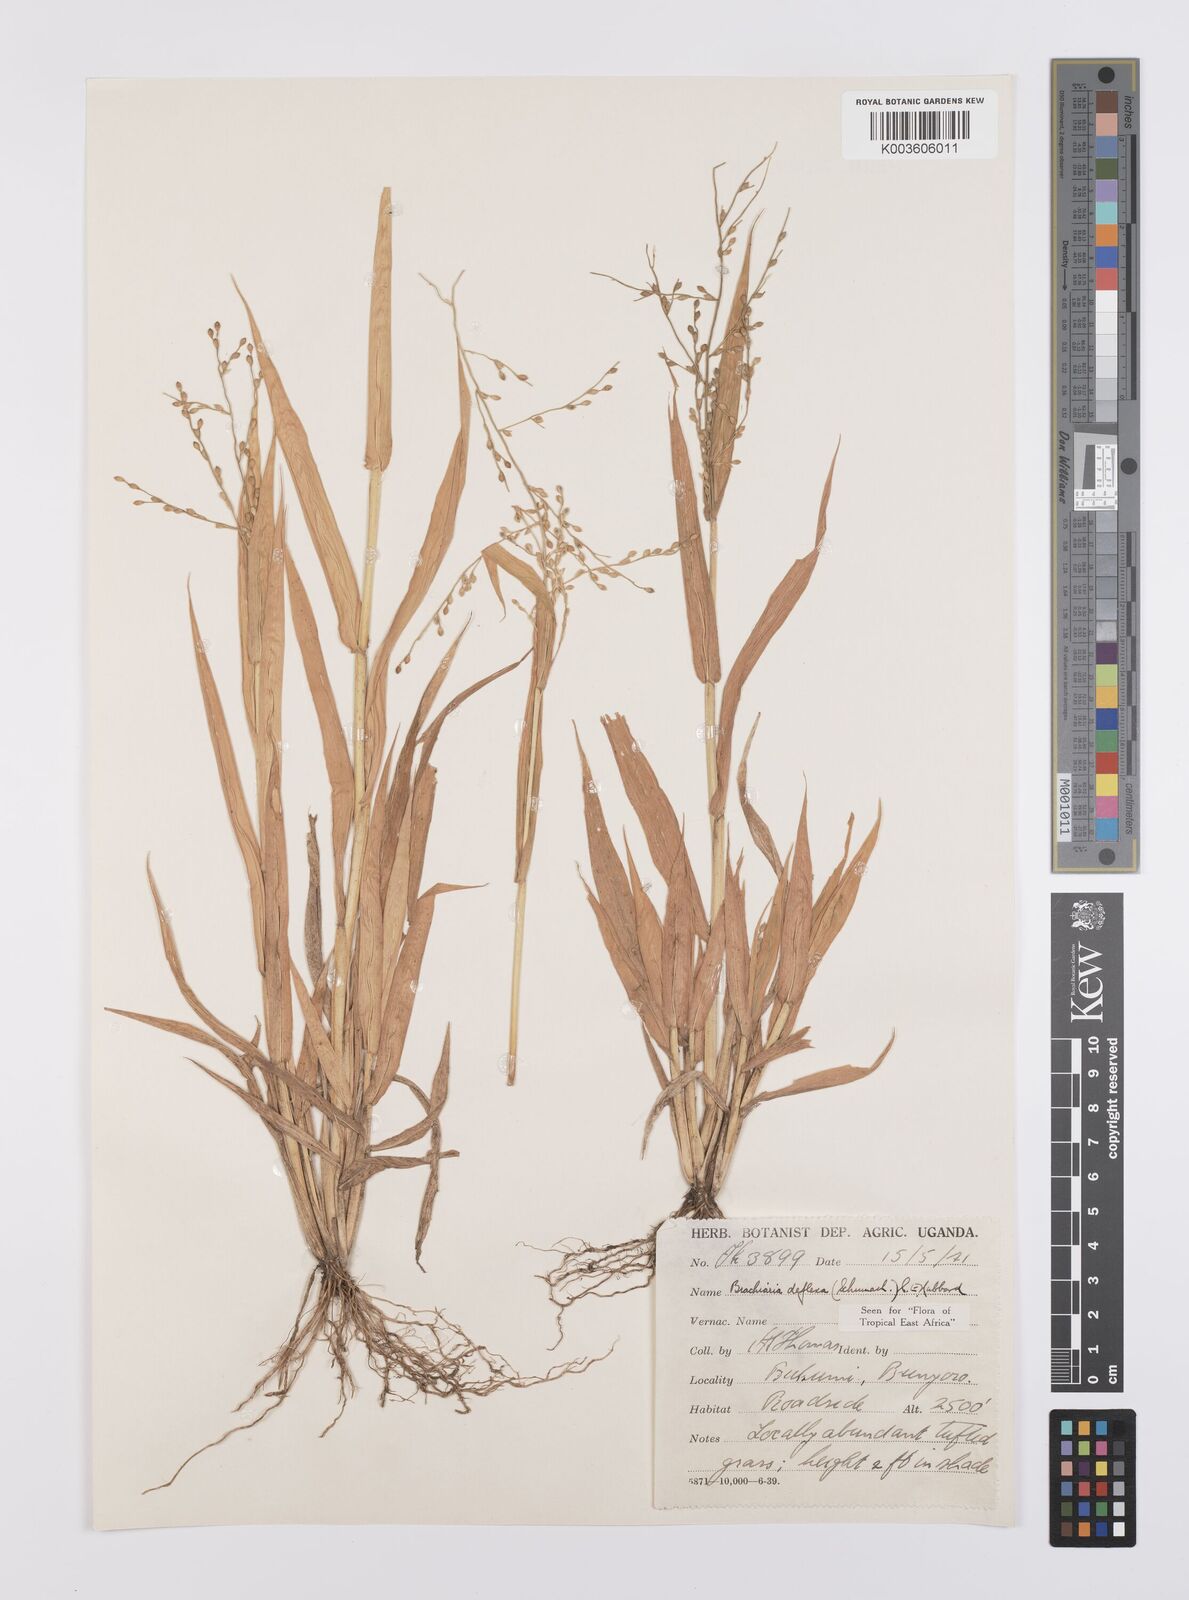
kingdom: Plantae
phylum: Tracheophyta
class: Liliopsida
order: Poales
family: Poaceae
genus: Urochloa
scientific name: Urochloa deflexa
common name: Guinea millet
